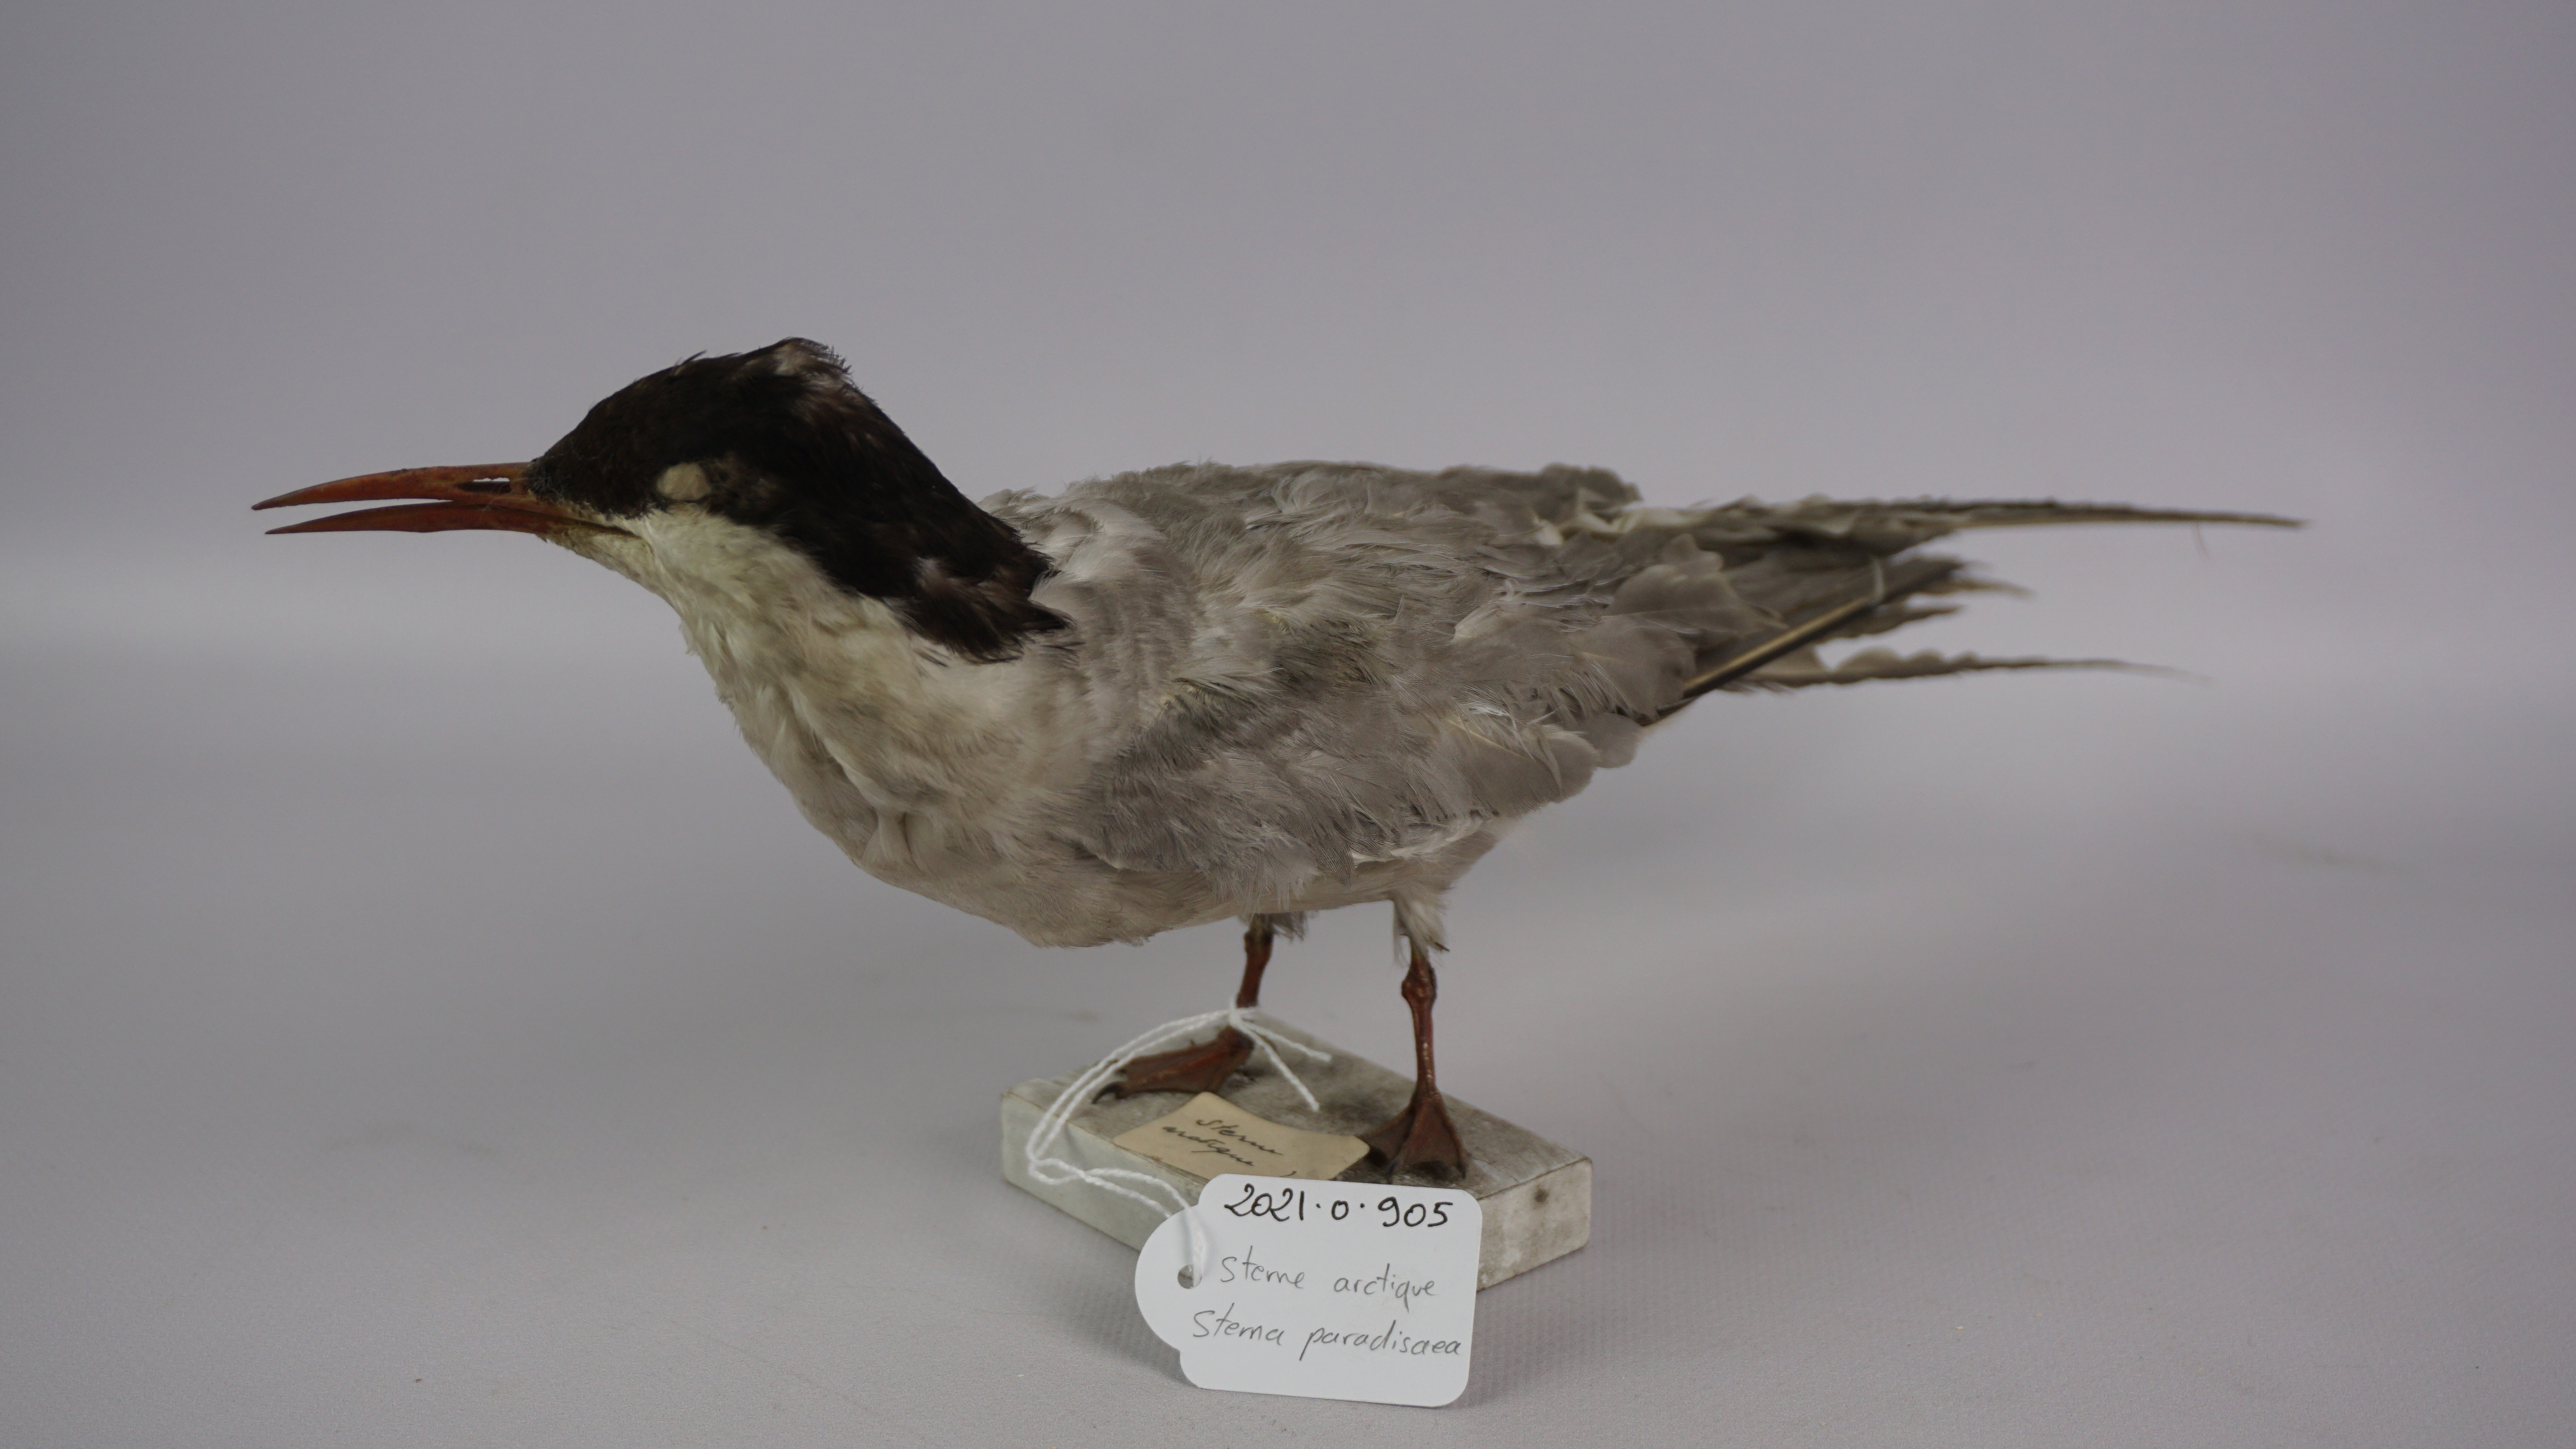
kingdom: Animalia
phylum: Chordata
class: Aves
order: Charadriiformes
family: Laridae
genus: Sterna
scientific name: Sterna paradisaea
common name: Arctic tern
